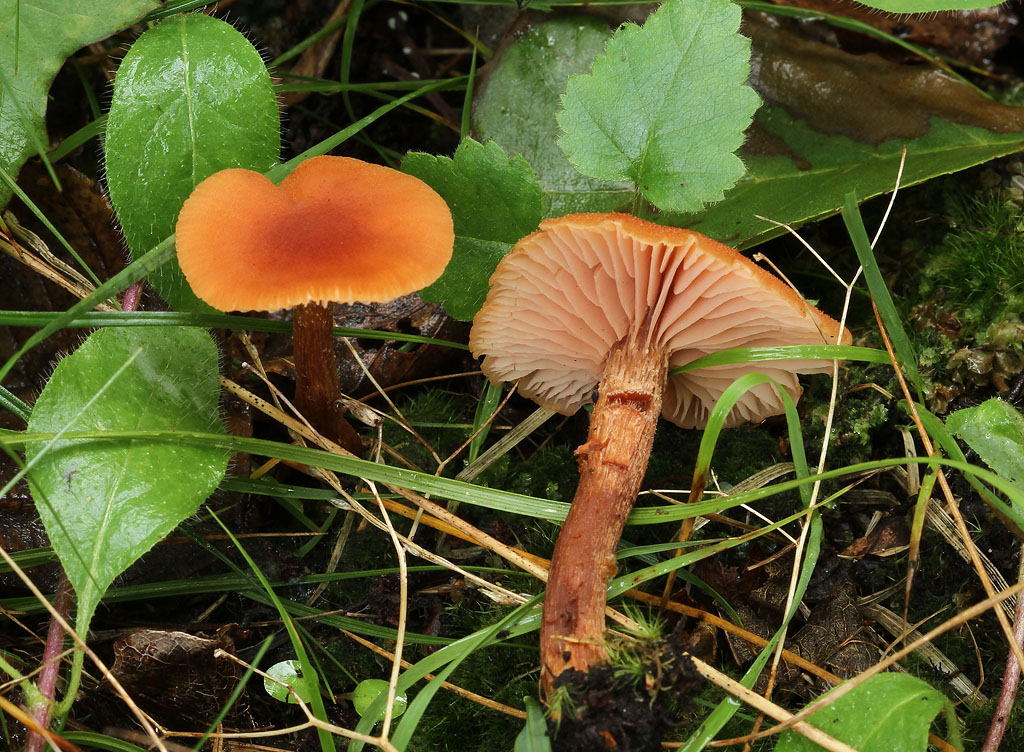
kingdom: Fungi
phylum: Basidiomycota
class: Agaricomycetes
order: Agaricales
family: Hydnangiaceae
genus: Laccaria
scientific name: Laccaria proxima
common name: stor ametysthat
